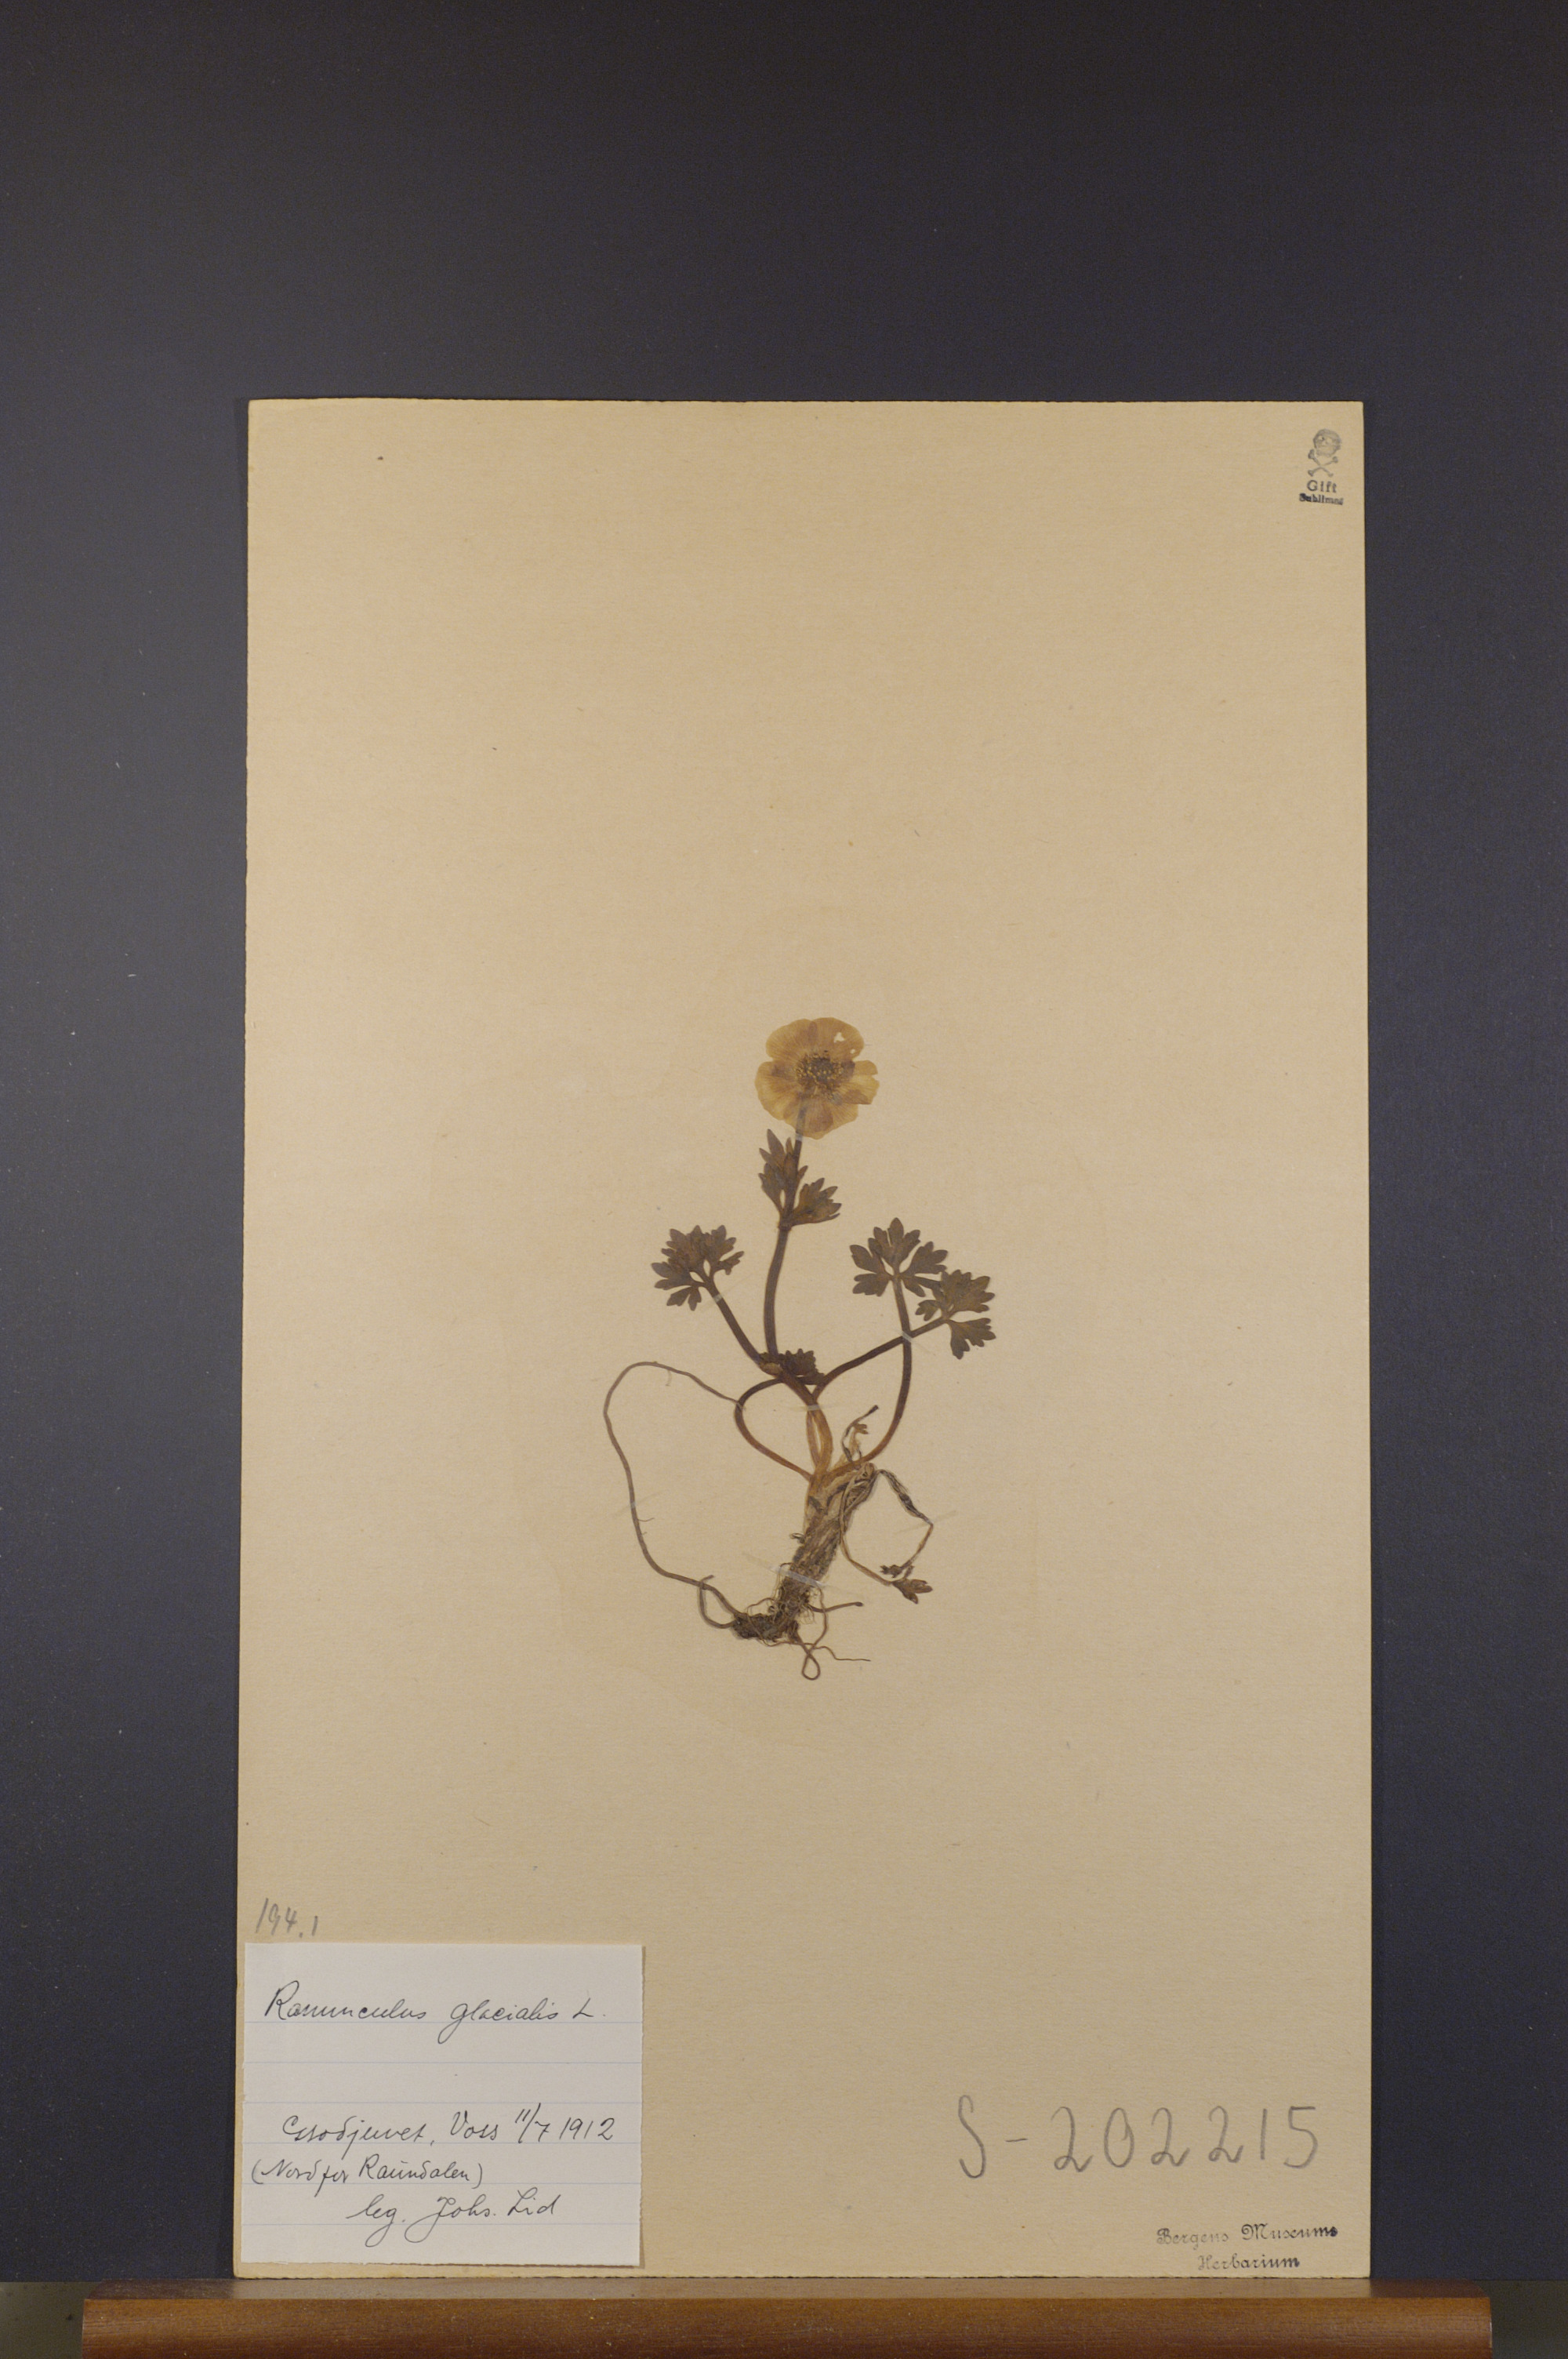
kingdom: Plantae
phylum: Tracheophyta
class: Magnoliopsida
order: Ranunculales
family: Ranunculaceae
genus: Ranunculus
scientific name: Ranunculus glacialis
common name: Glacier buttercup
